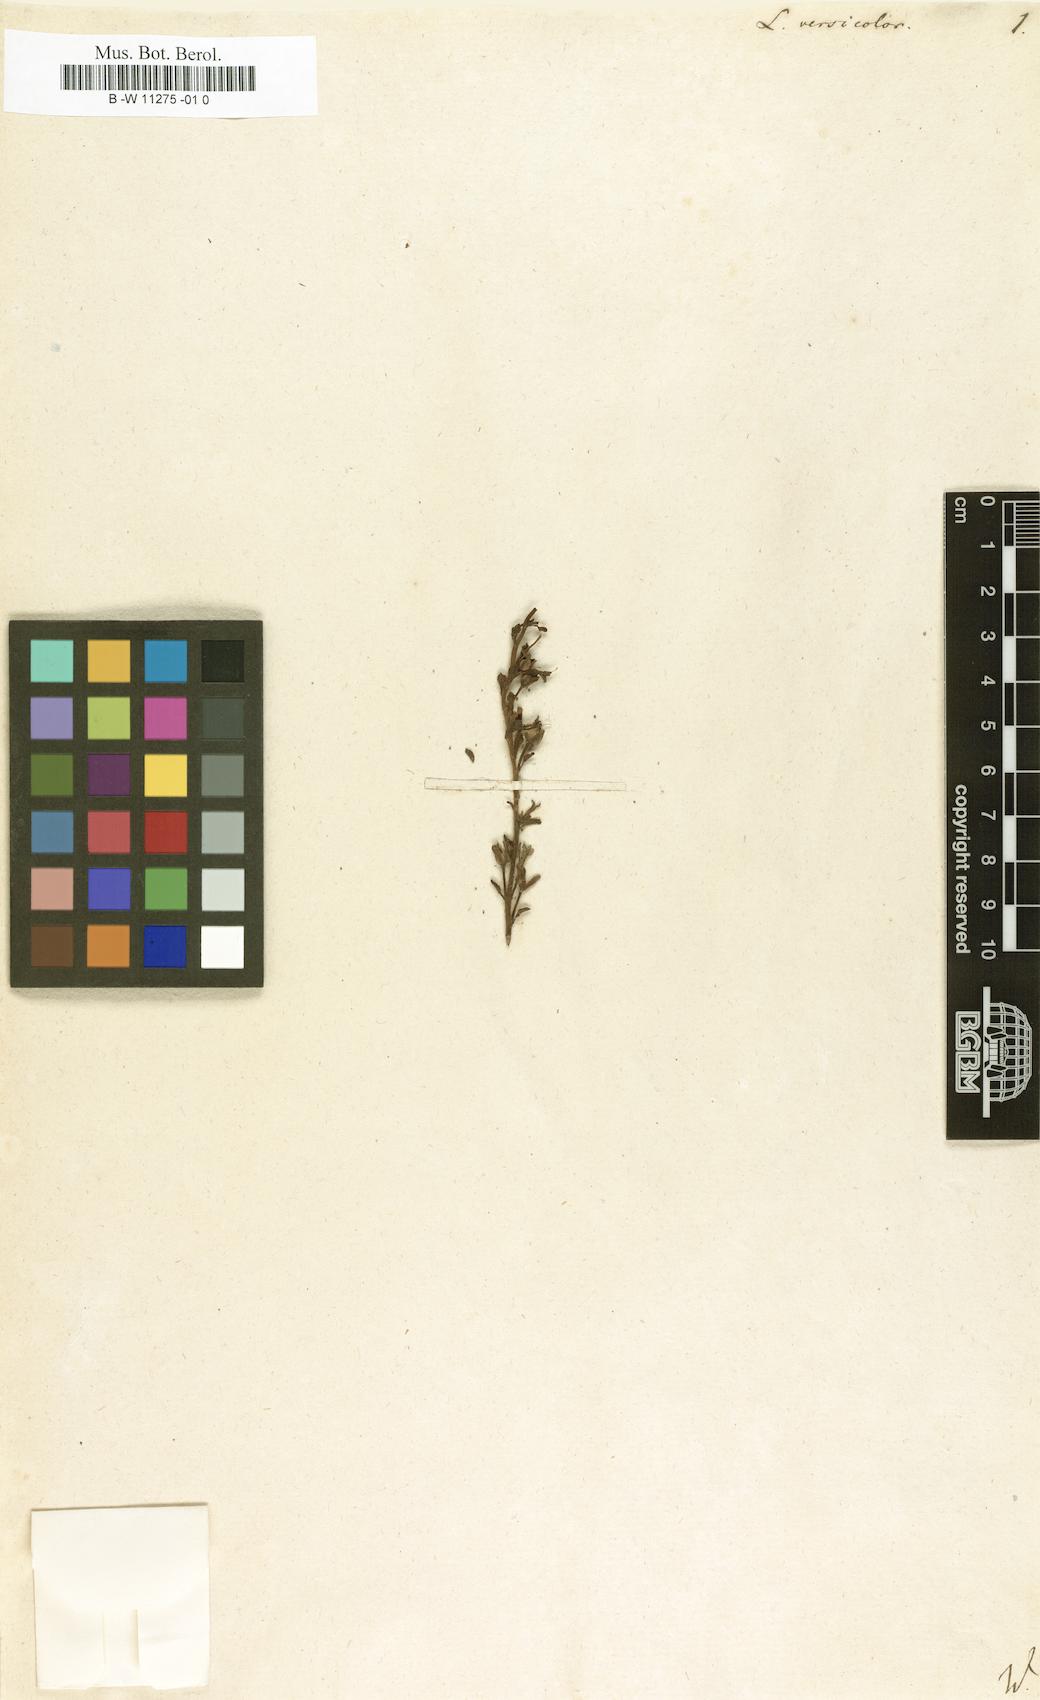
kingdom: Plantae
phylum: Tracheophyta
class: Magnoliopsida
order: Lamiales
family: Plantaginaceae
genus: Linaria
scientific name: Linaria
